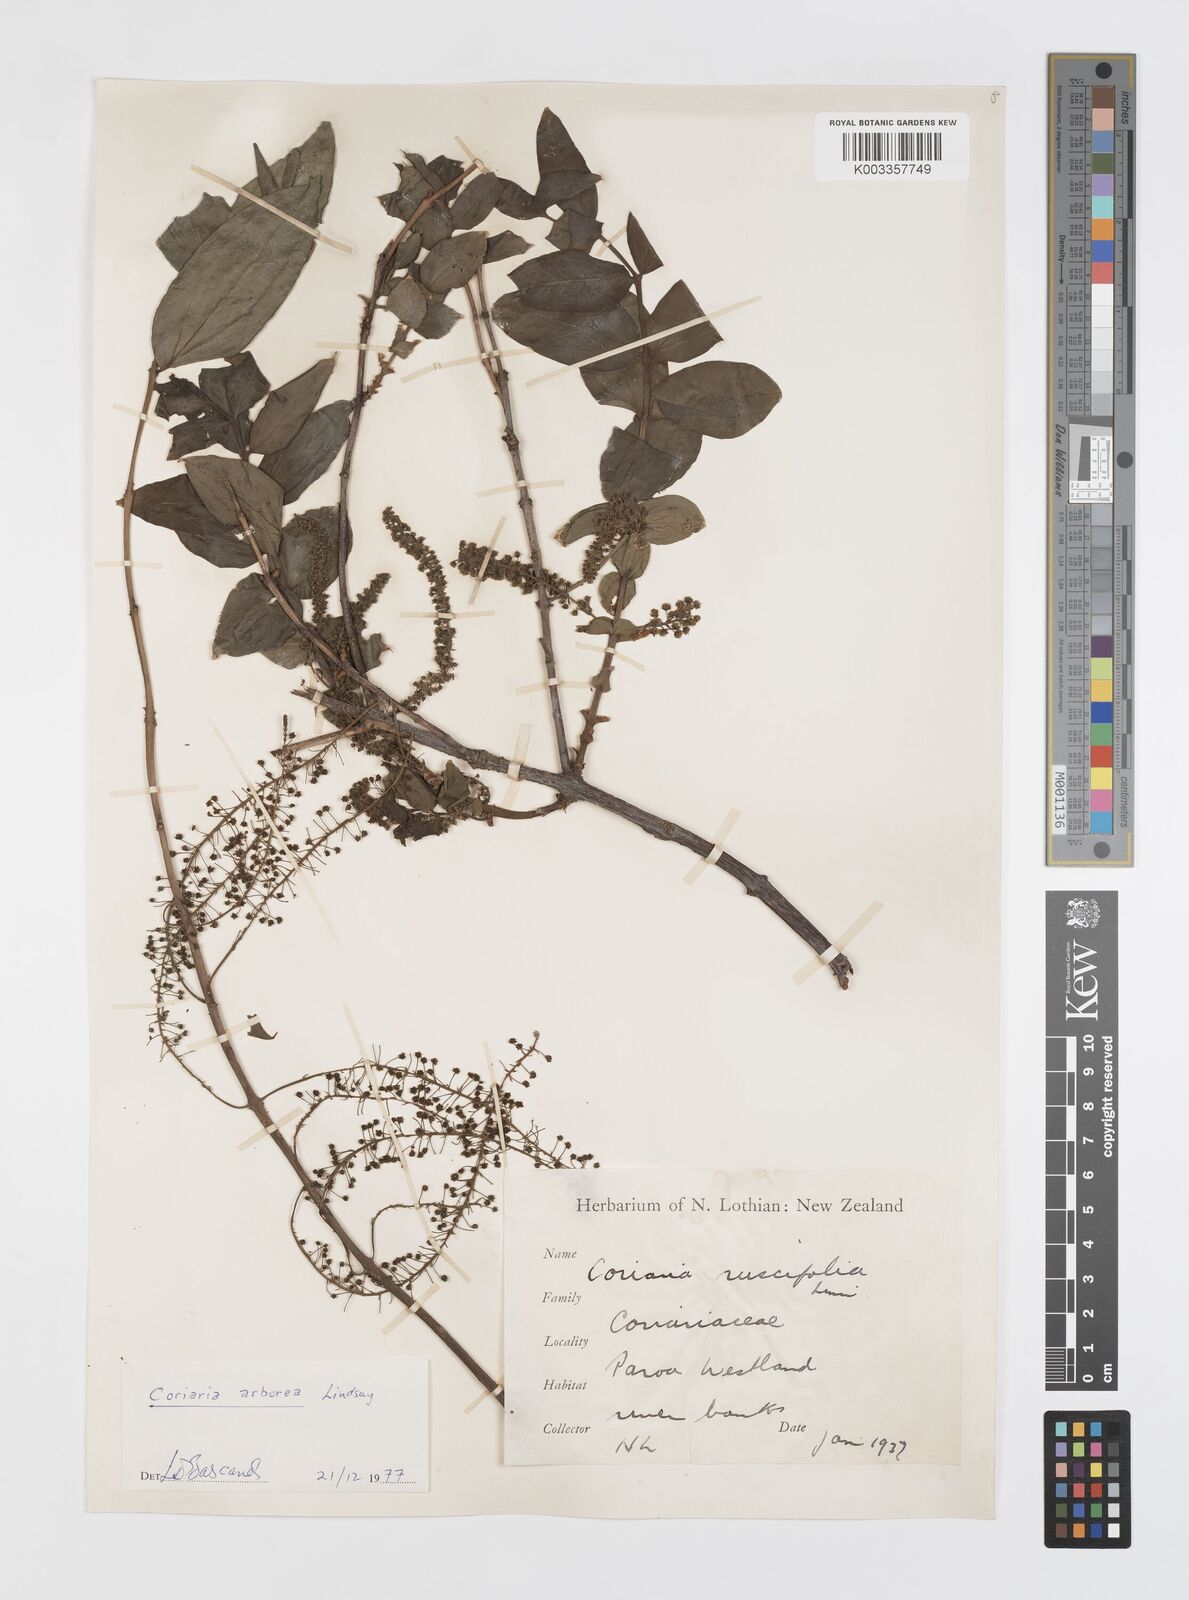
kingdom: Plantae
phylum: Tracheophyta
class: Magnoliopsida
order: Cucurbitales
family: Coriariaceae
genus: Coriaria
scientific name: Coriaria arborea
